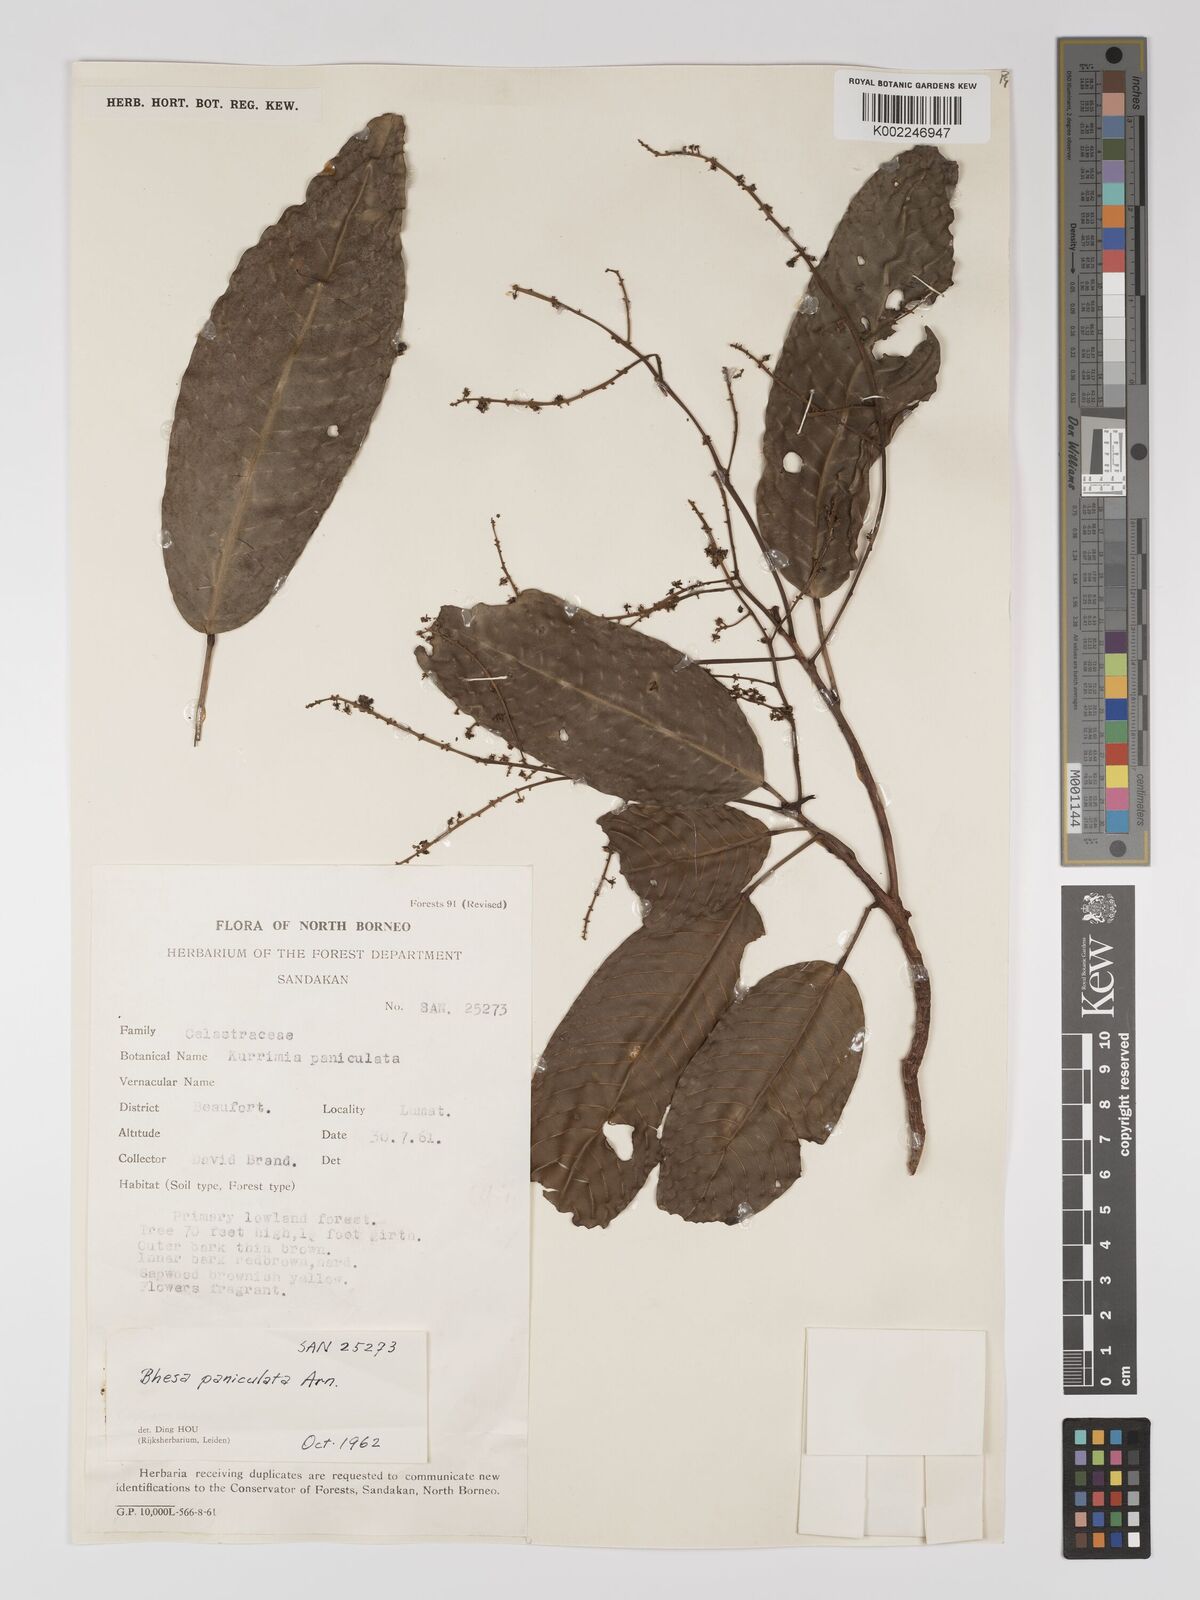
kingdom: Plantae
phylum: Tracheophyta
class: Magnoliopsida
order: Malpighiales
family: Centroplacaceae
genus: Bhesa
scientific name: Bhesa paniculata
